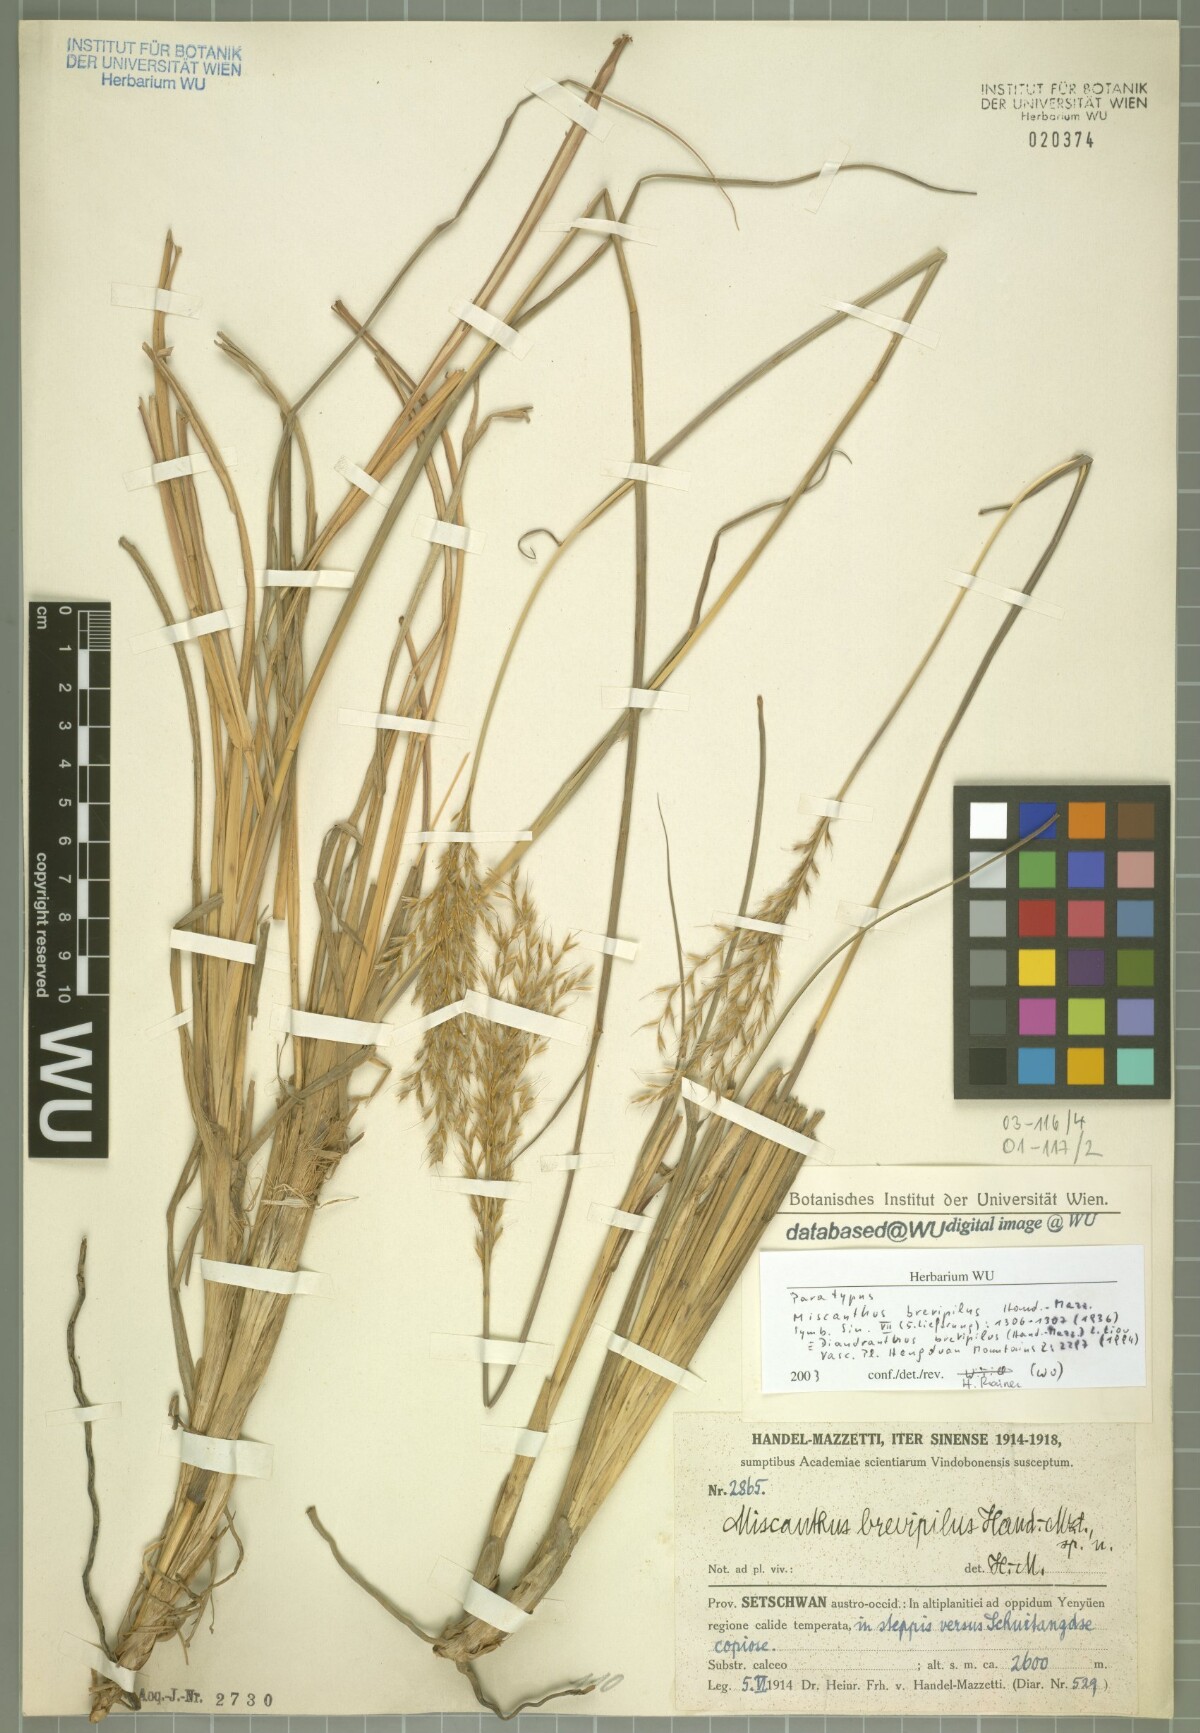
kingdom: Plantae
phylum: Tracheophyta
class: Liliopsida
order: Poales
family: Poaceae
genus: Miscanthus
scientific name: Miscanthus nudipes
